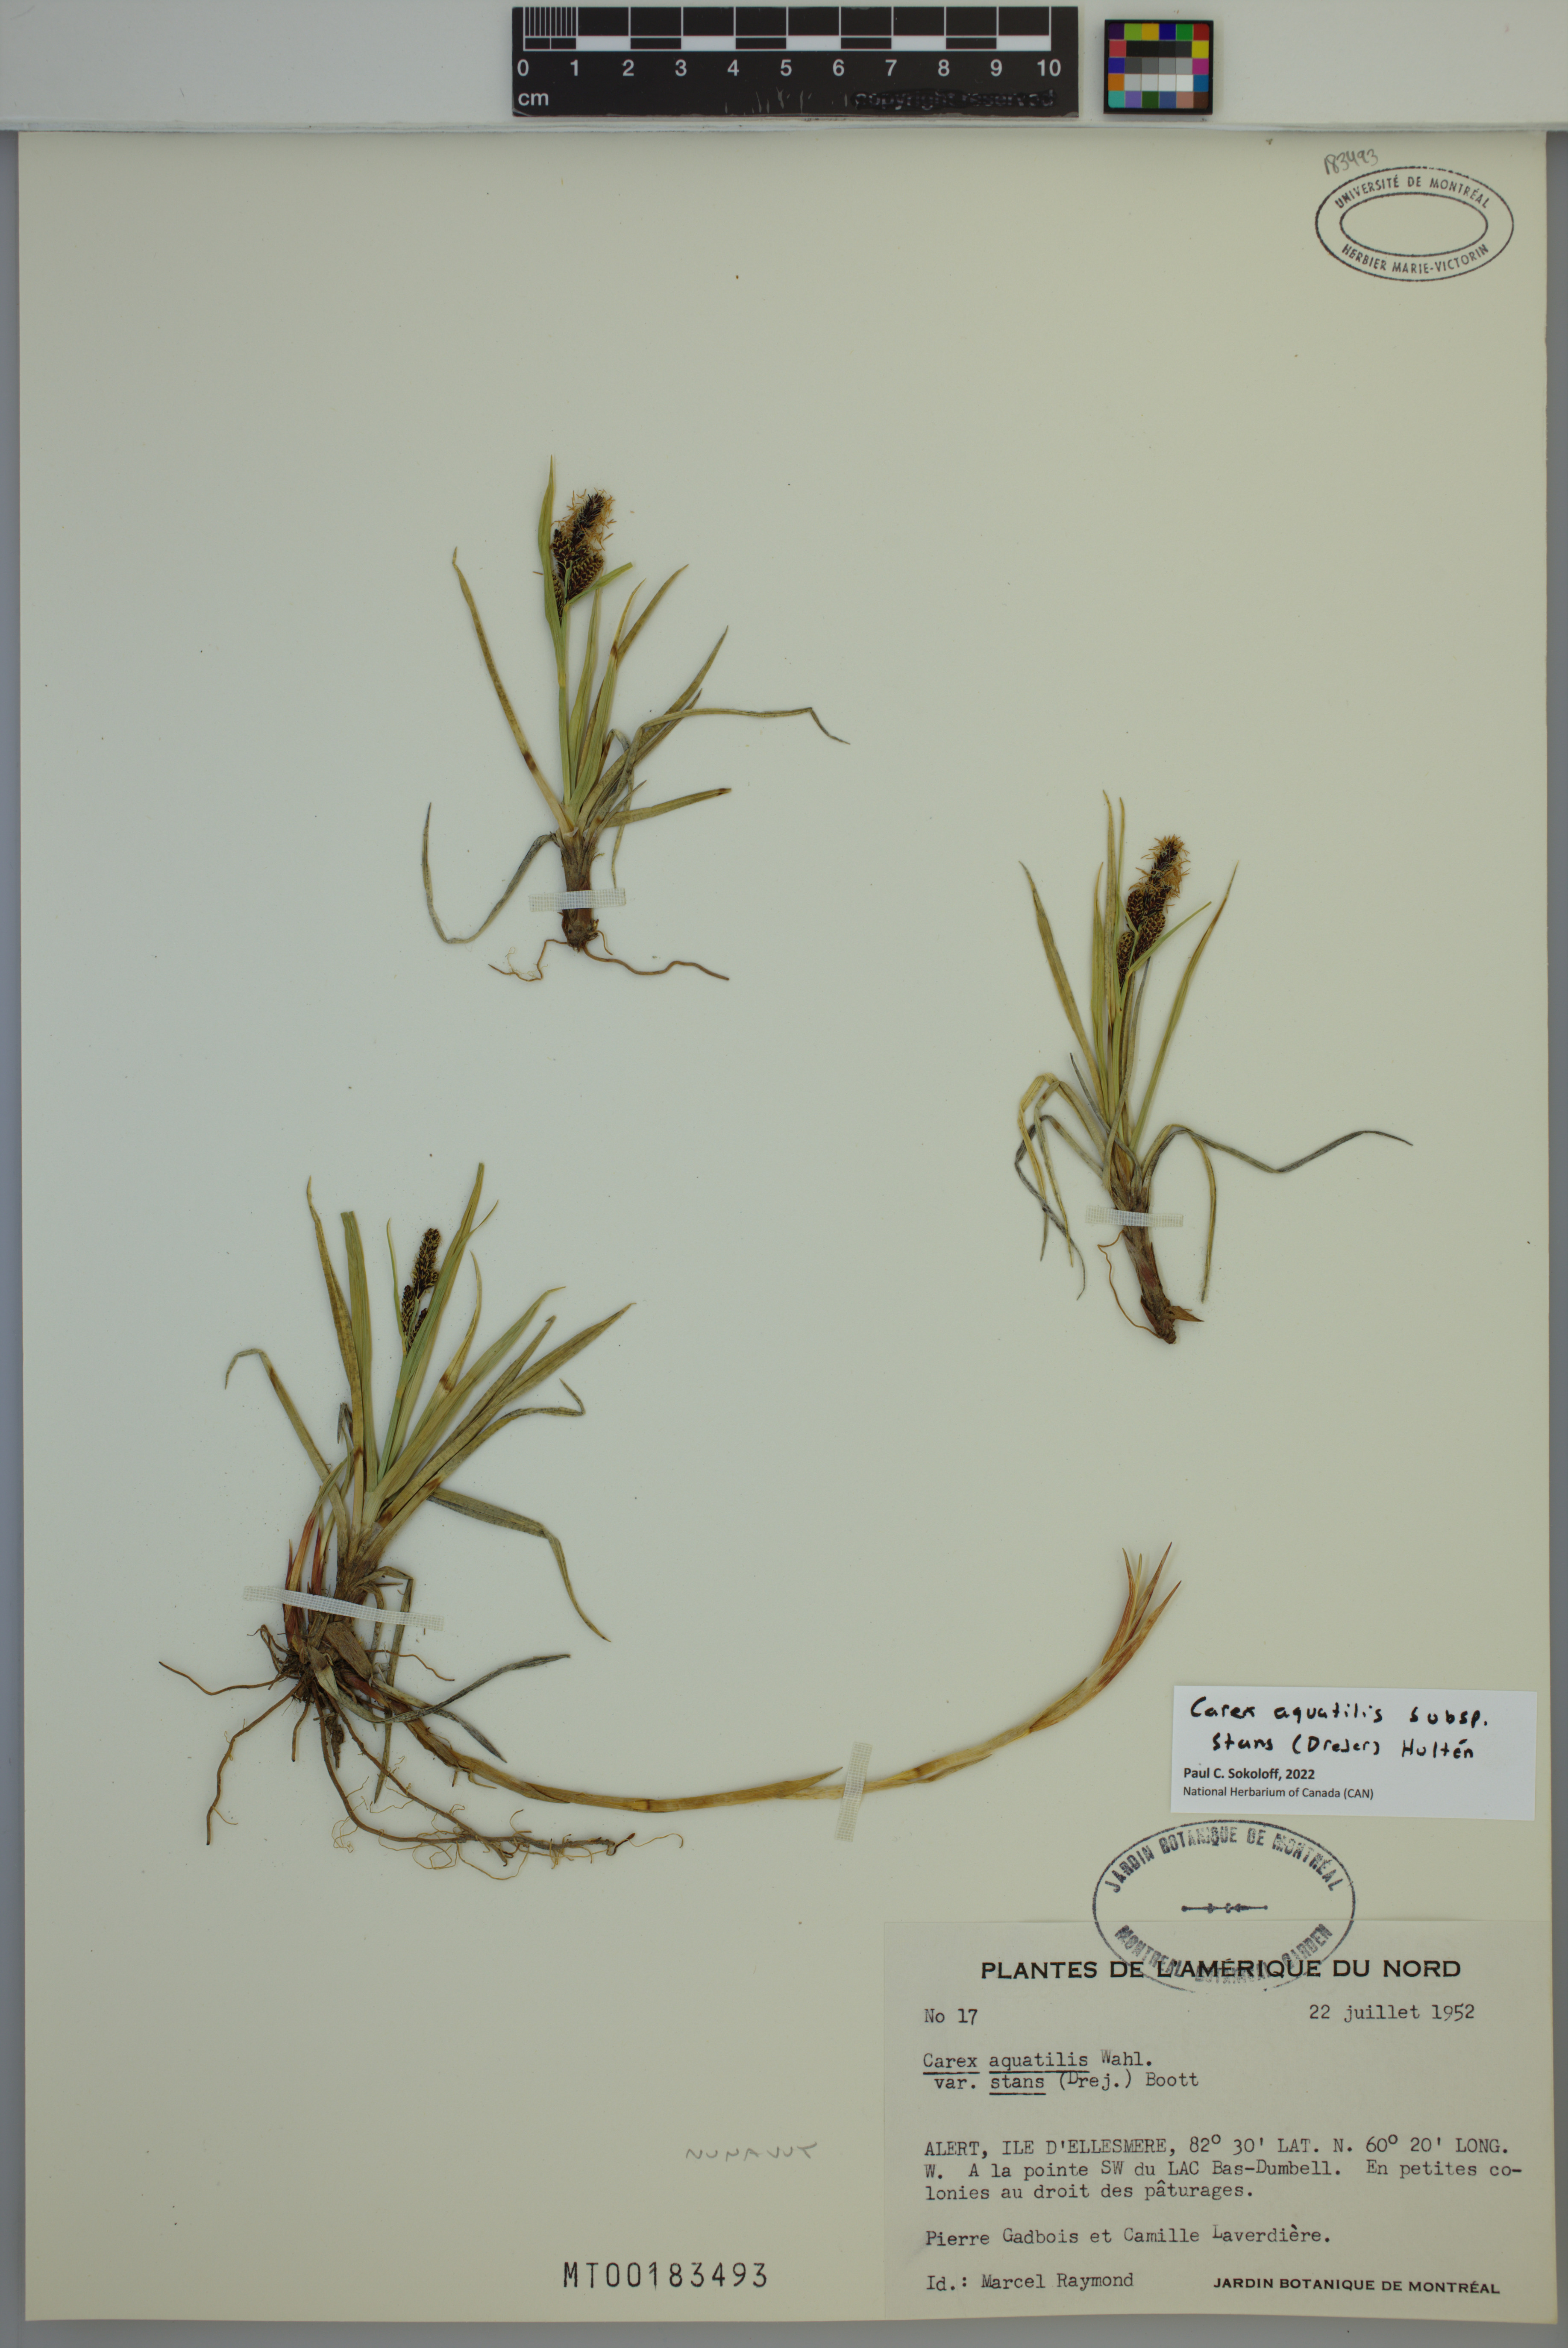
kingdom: Plantae
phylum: Tracheophyta
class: Liliopsida
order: Poales
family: Cyperaceae
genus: Carex
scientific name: Carex aquatilis
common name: Water sedge
